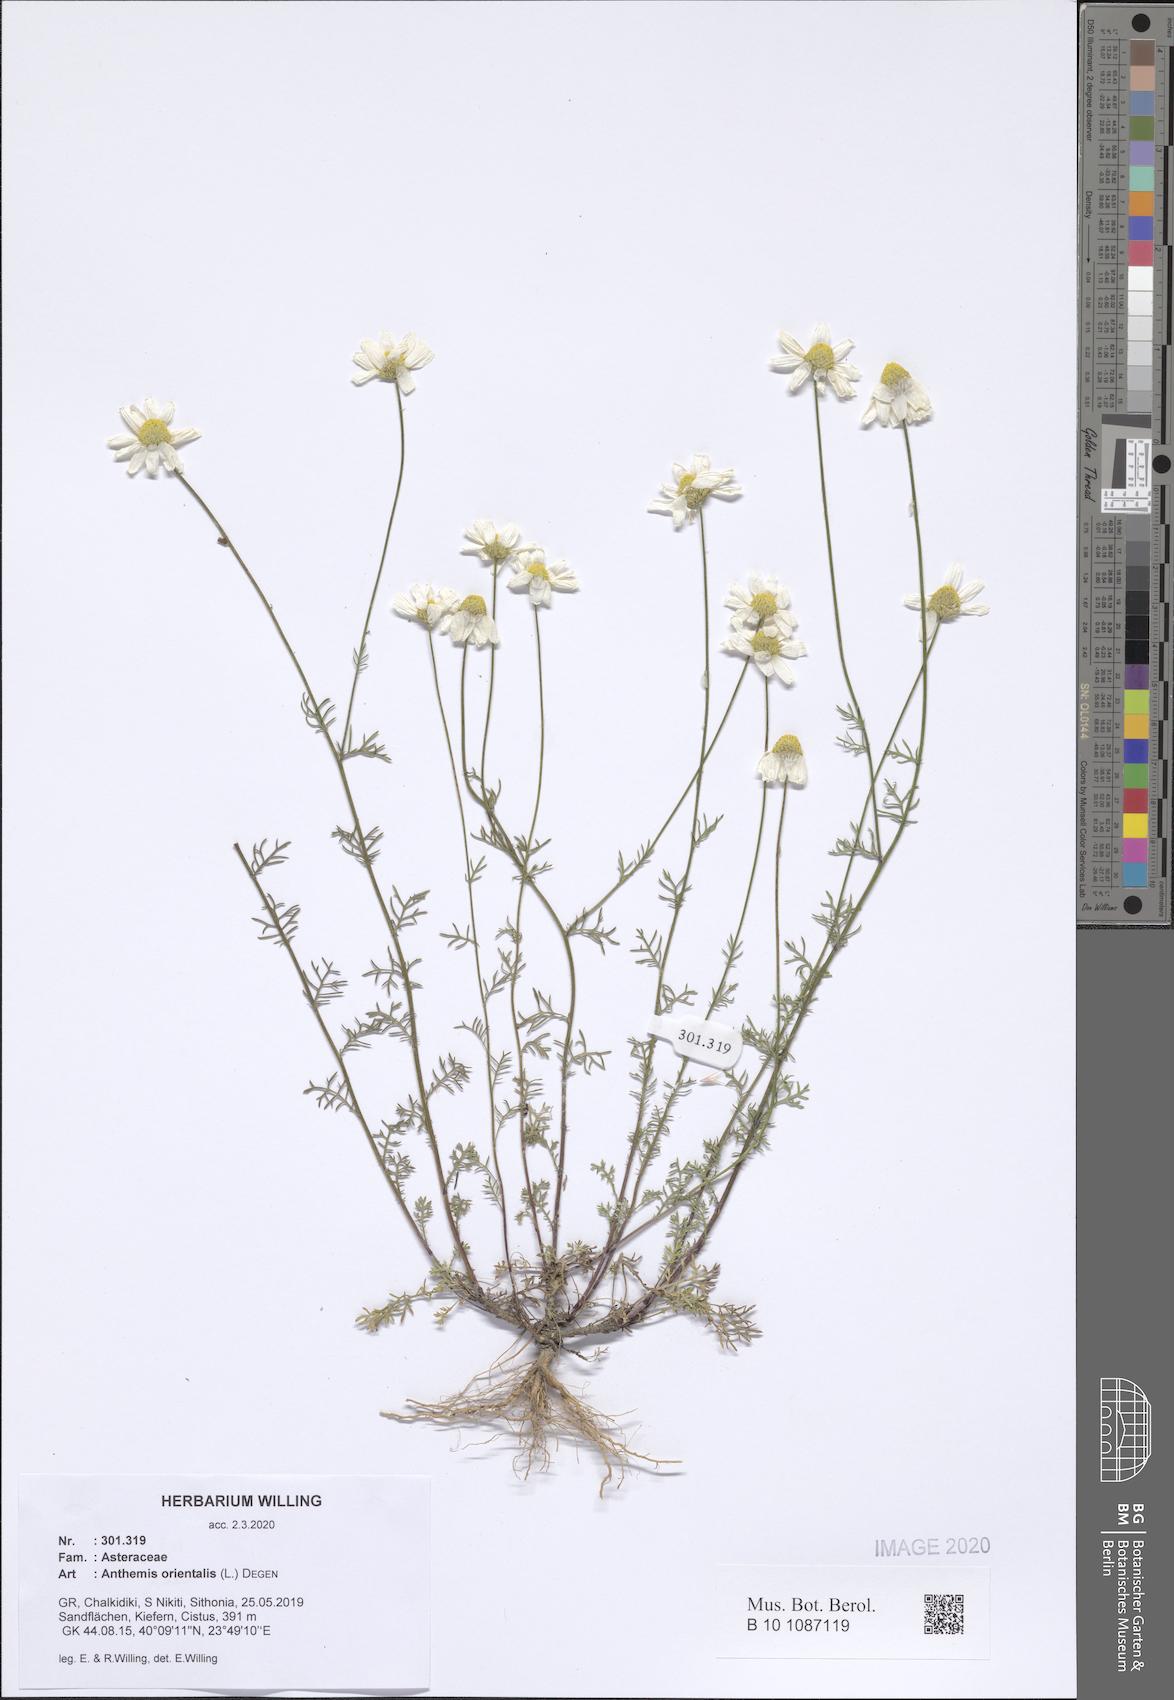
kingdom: Plantae
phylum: Tracheophyta
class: Magnoliopsida
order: Asterales
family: Asteraceae
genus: Anthemis
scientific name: Anthemis orientalis
